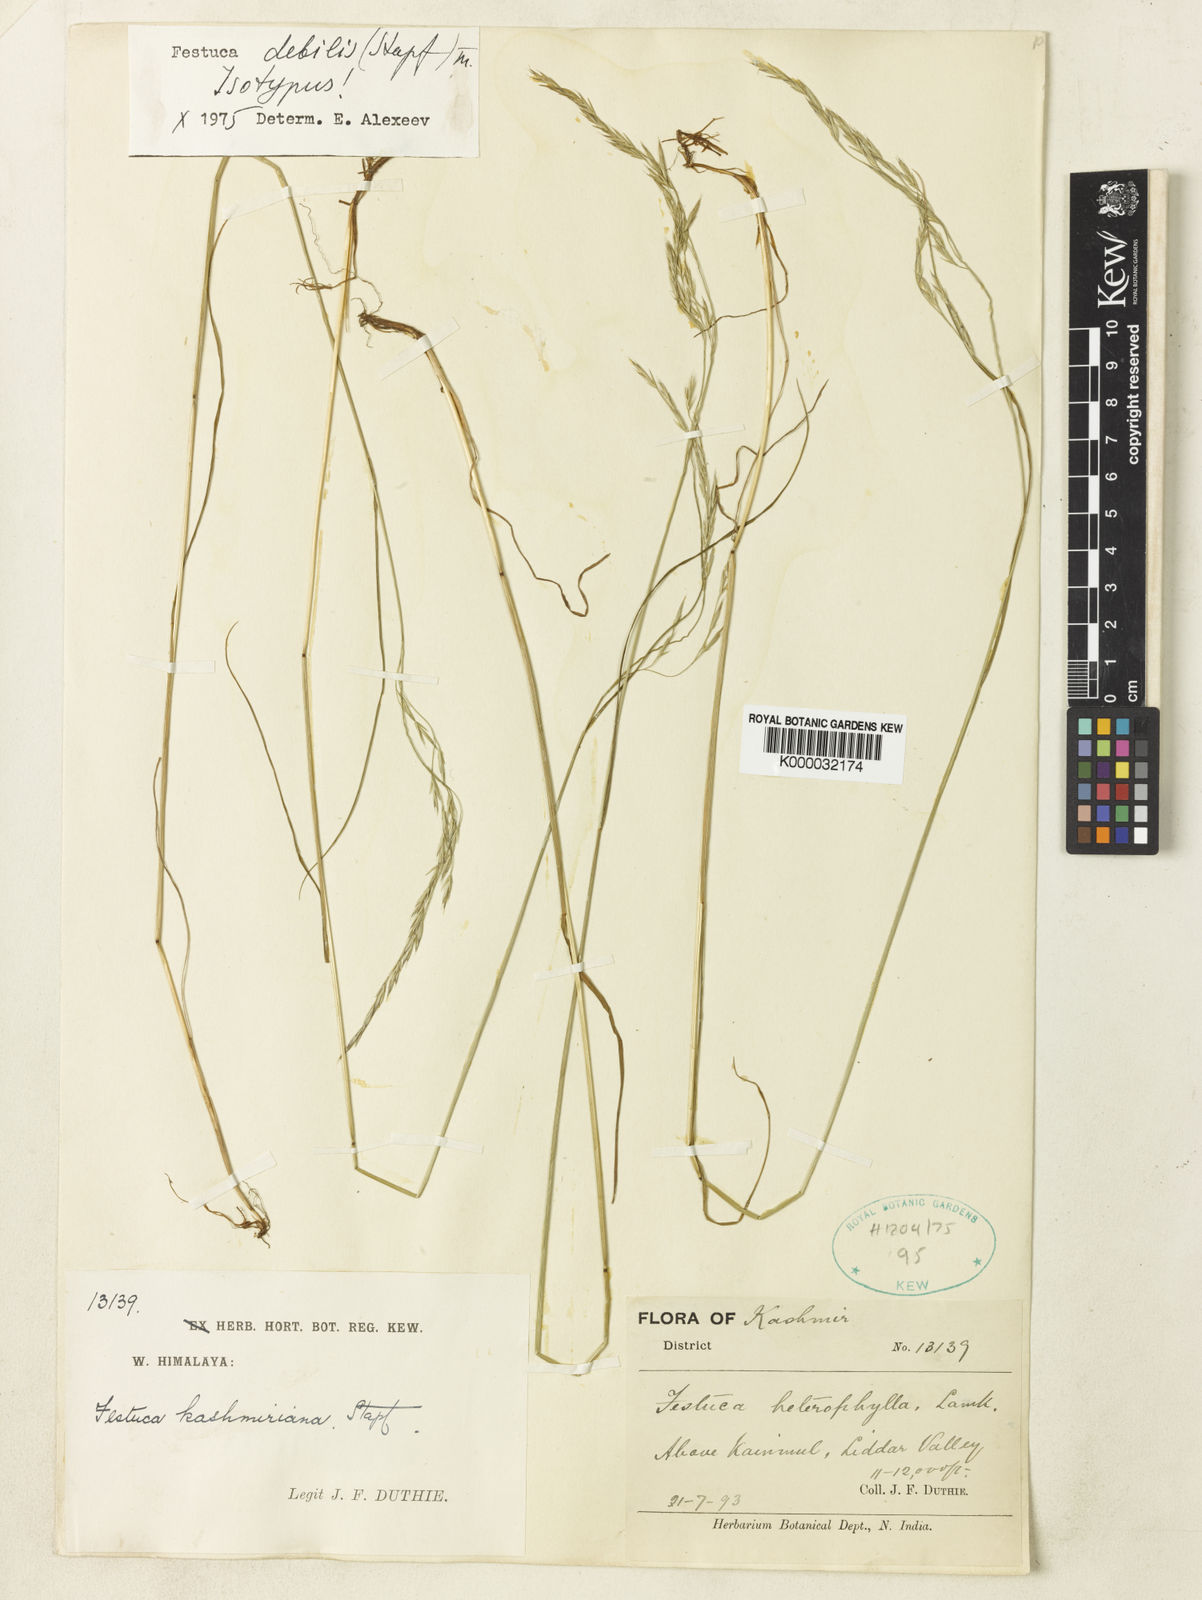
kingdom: Plantae
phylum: Tracheophyta
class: Liliopsida
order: Poales
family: Poaceae
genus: Festuca
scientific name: Festuca debilis
